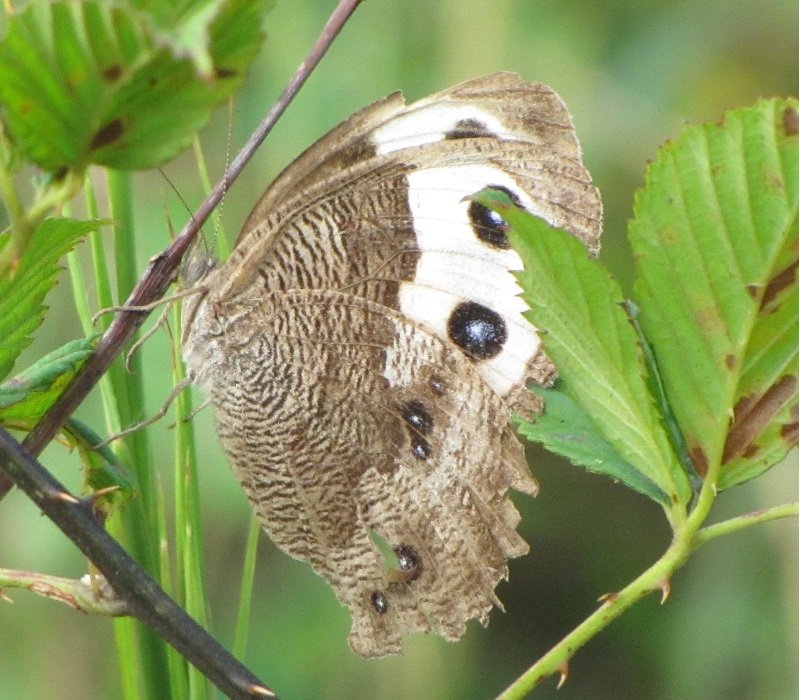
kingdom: Animalia
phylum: Arthropoda
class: Insecta
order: Lepidoptera
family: Nymphalidae
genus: Cercyonis
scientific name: Cercyonis pegala
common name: Common Wood-Nymph
